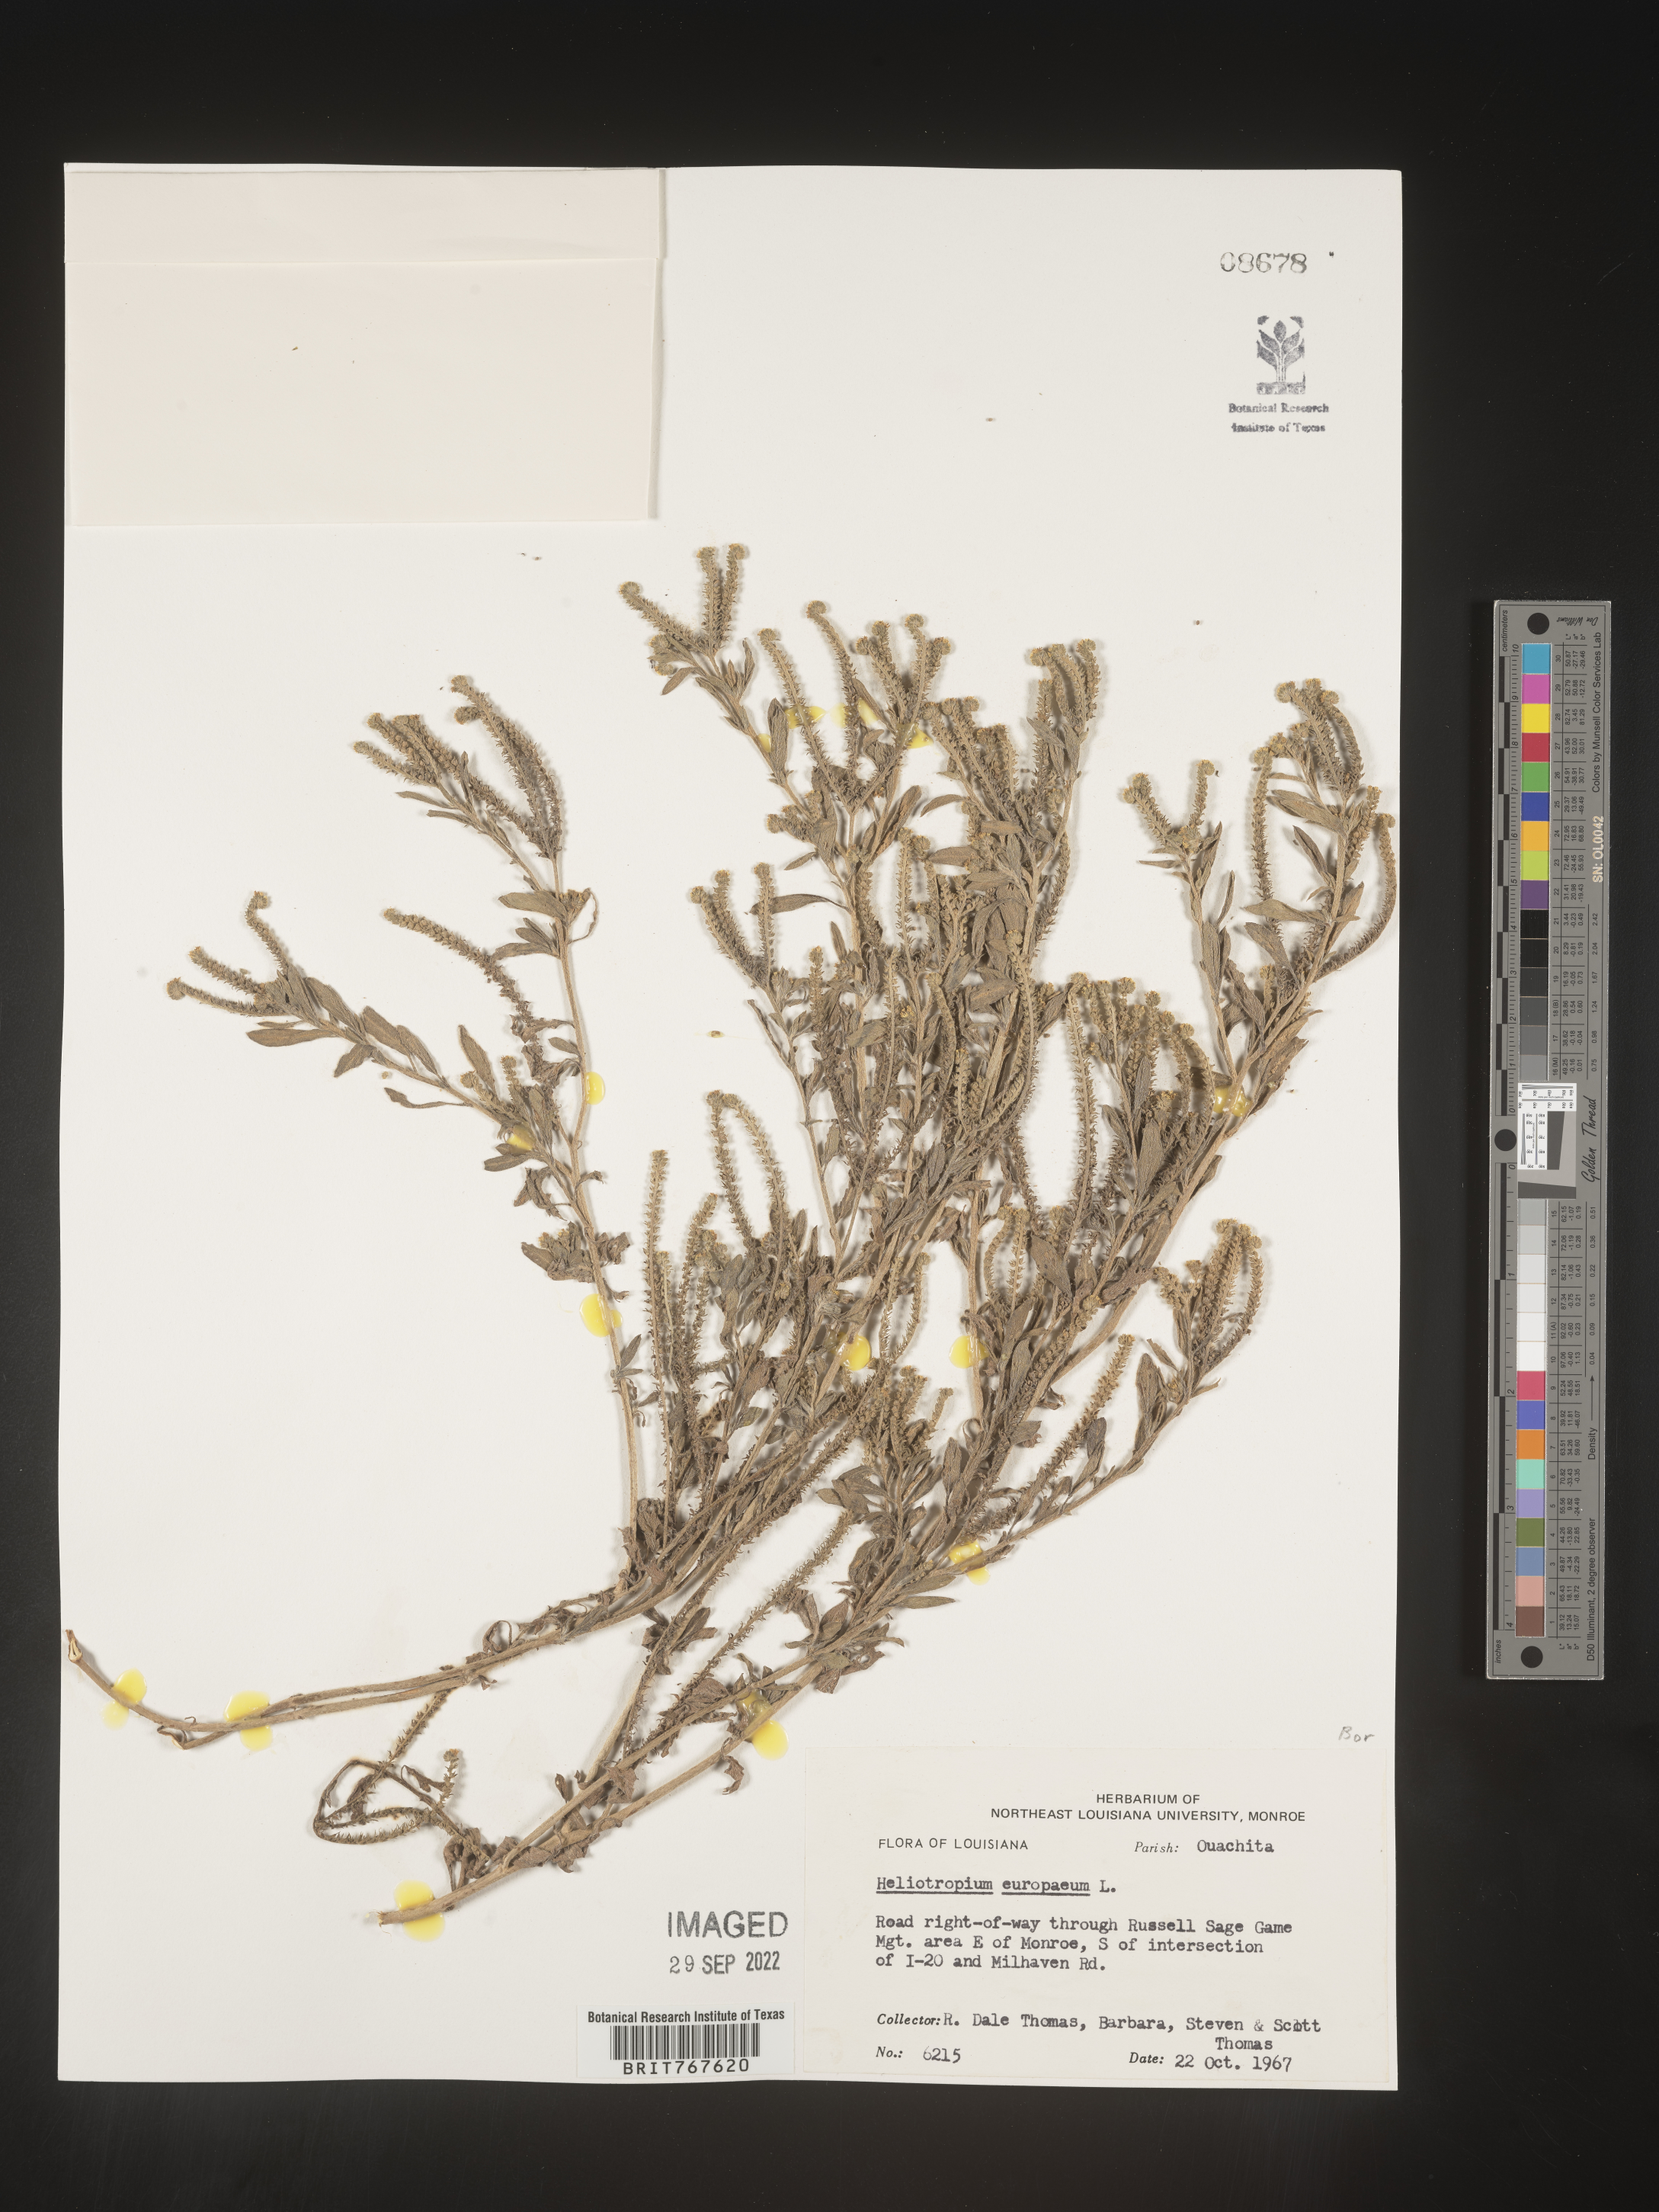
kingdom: Plantae
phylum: Tracheophyta
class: Magnoliopsida
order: Boraginales
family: Heliotropiaceae
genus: Heliotropium
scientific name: Heliotropium
